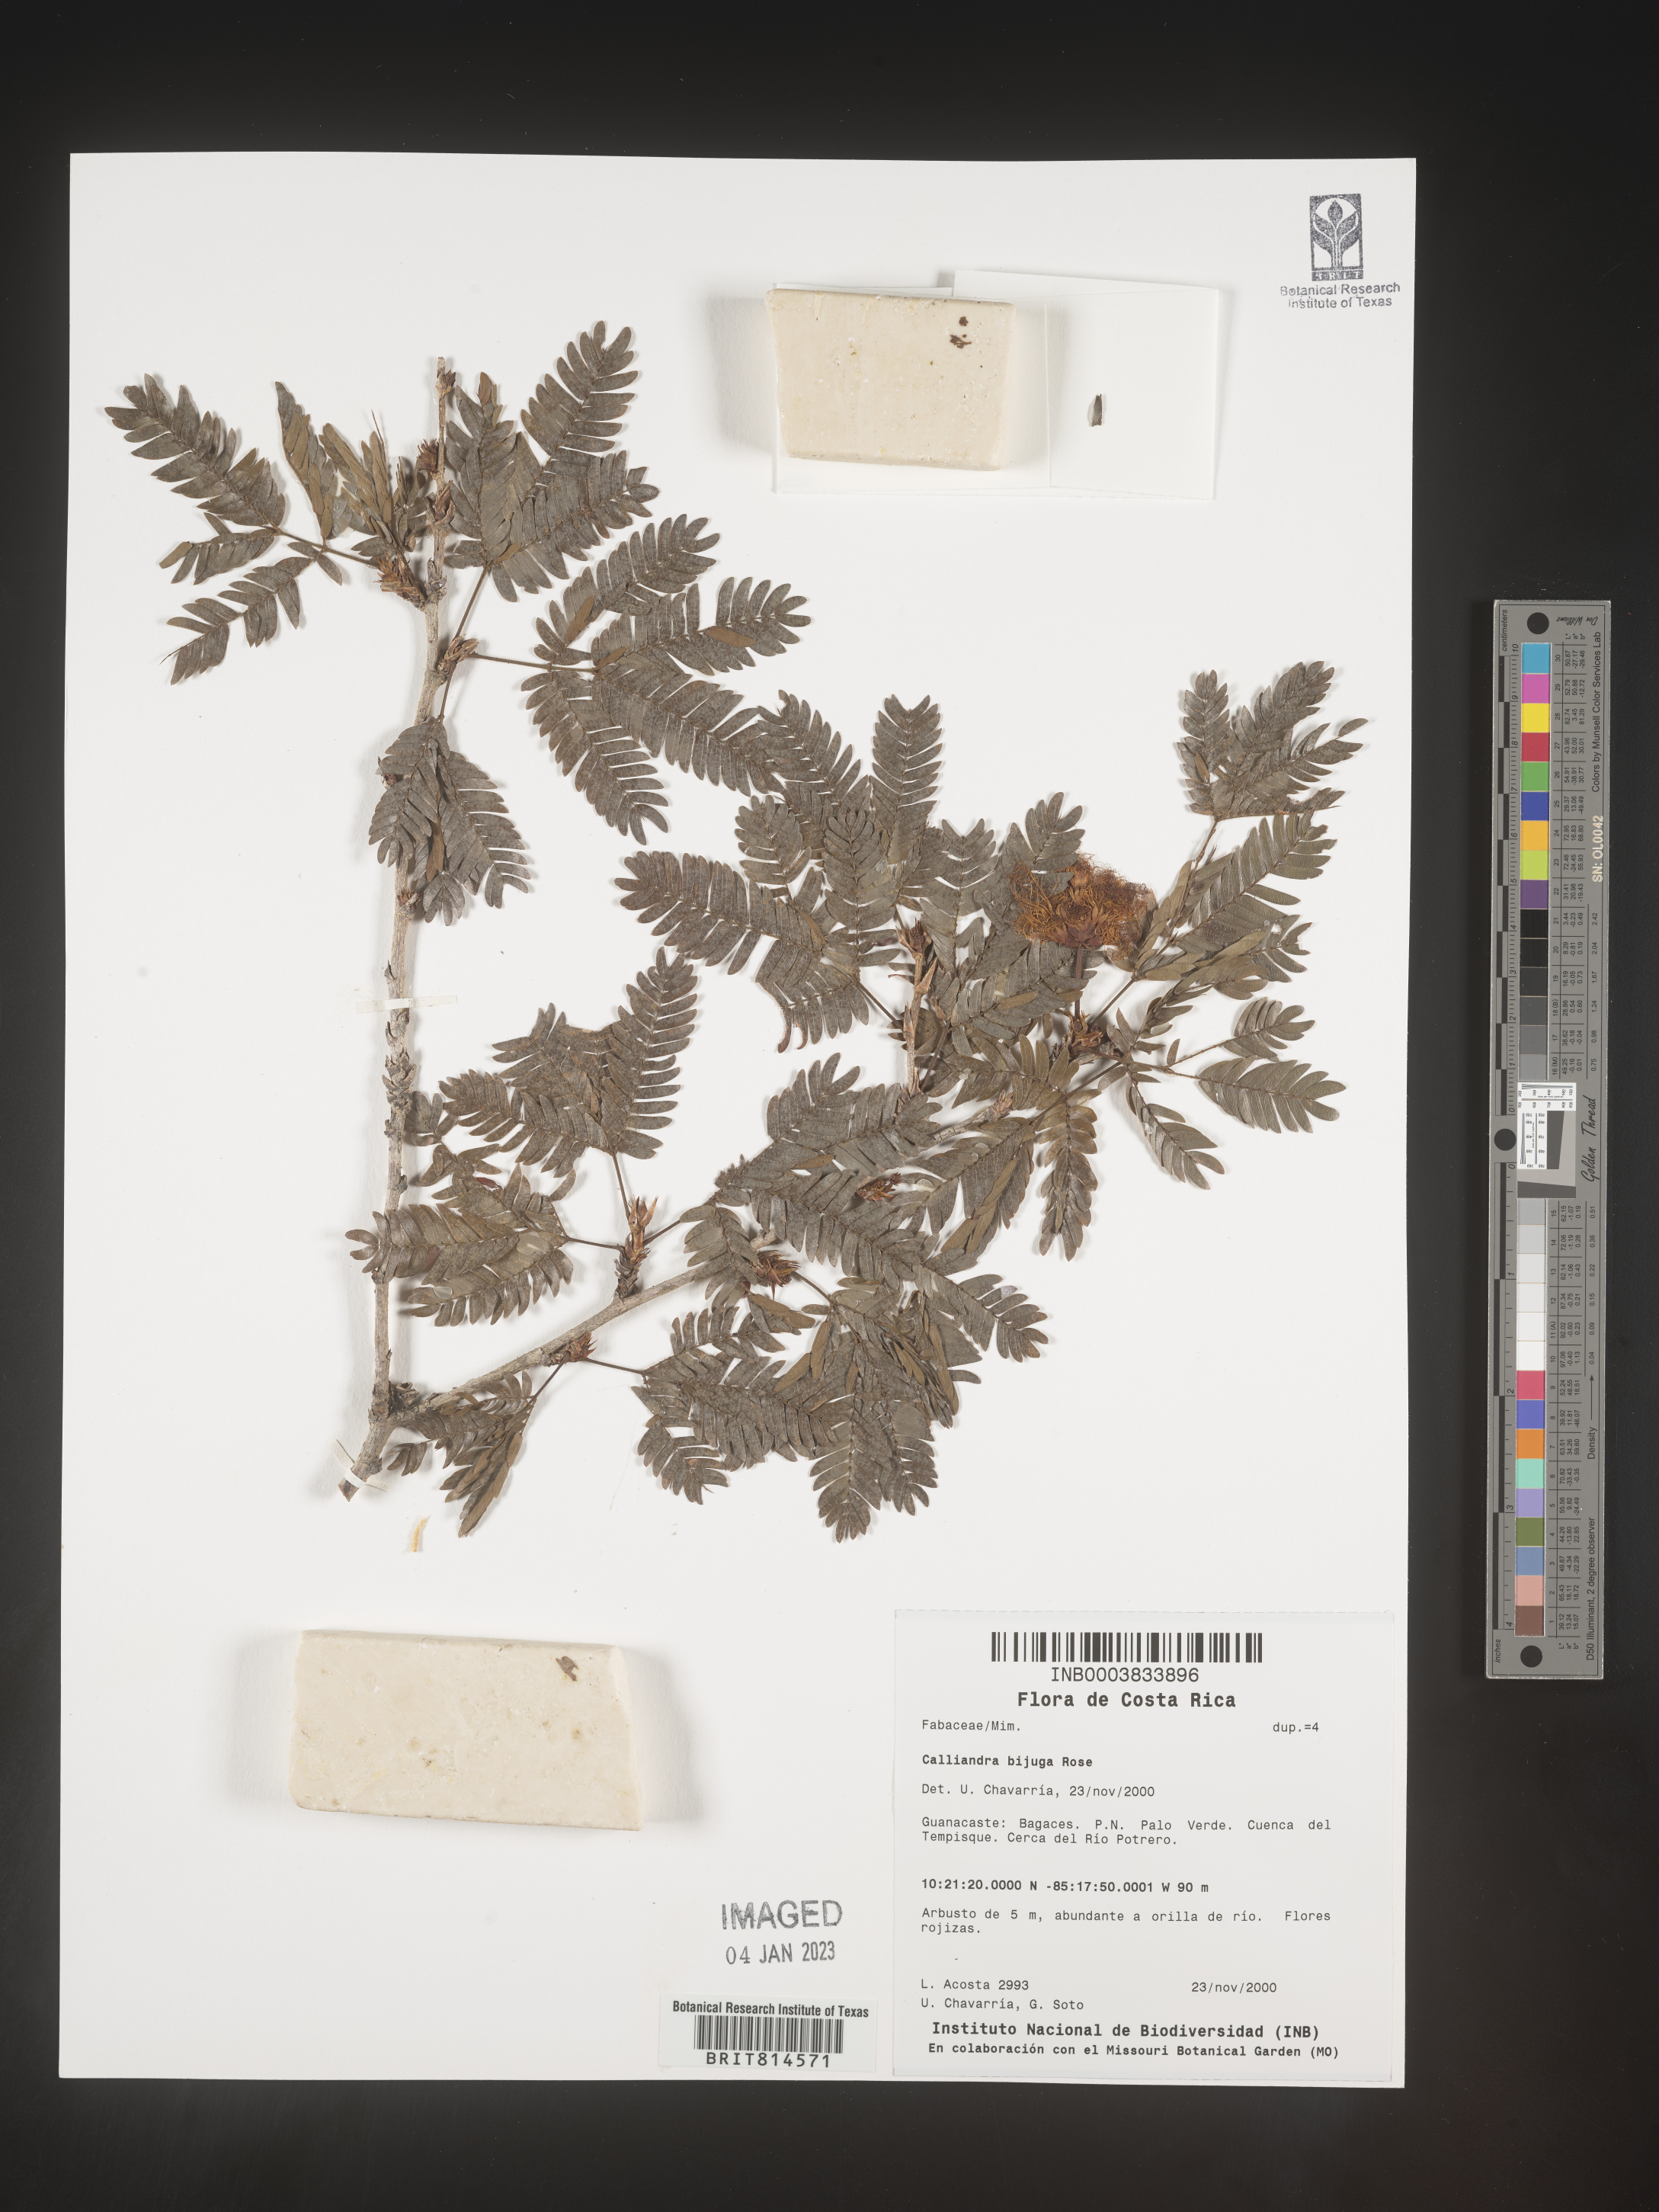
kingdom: Plantae
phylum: Tracheophyta
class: Magnoliopsida
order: Fabales
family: Fabaceae
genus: Calliandra
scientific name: Calliandra
